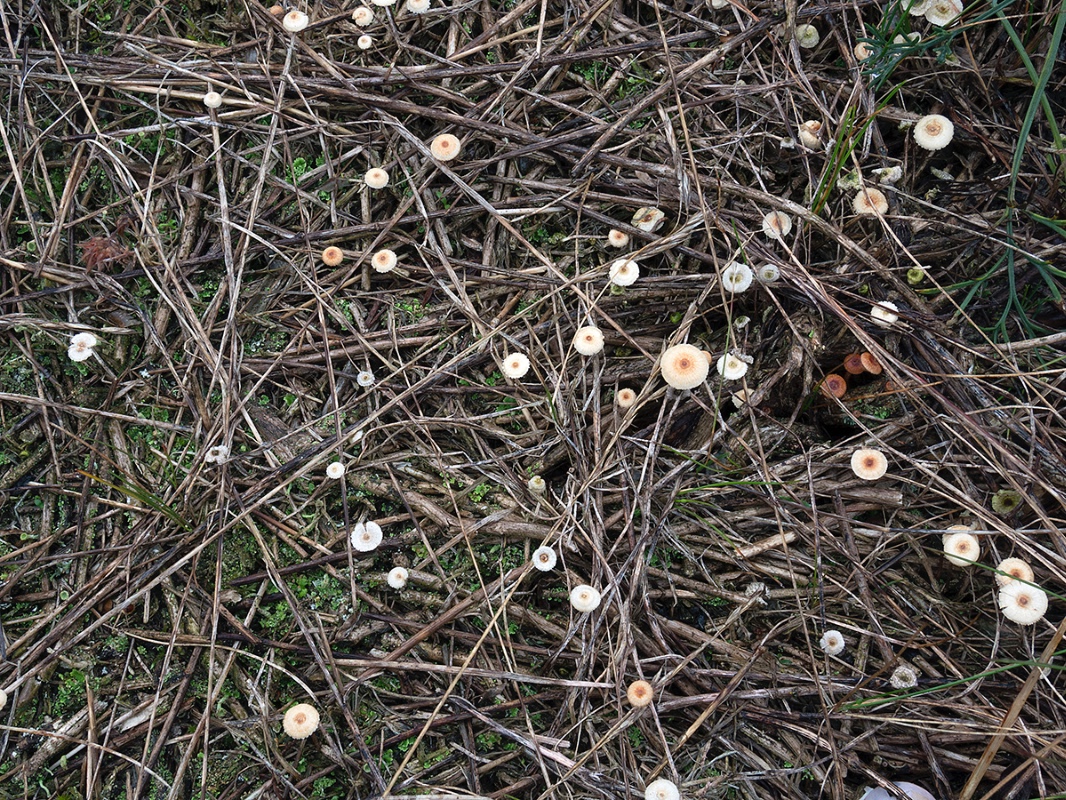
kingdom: Fungi
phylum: Basidiomycota
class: Agaricomycetes
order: Agaricales
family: Marasmiaceae
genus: Crinipellis
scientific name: Crinipellis scabella
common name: børstefod
